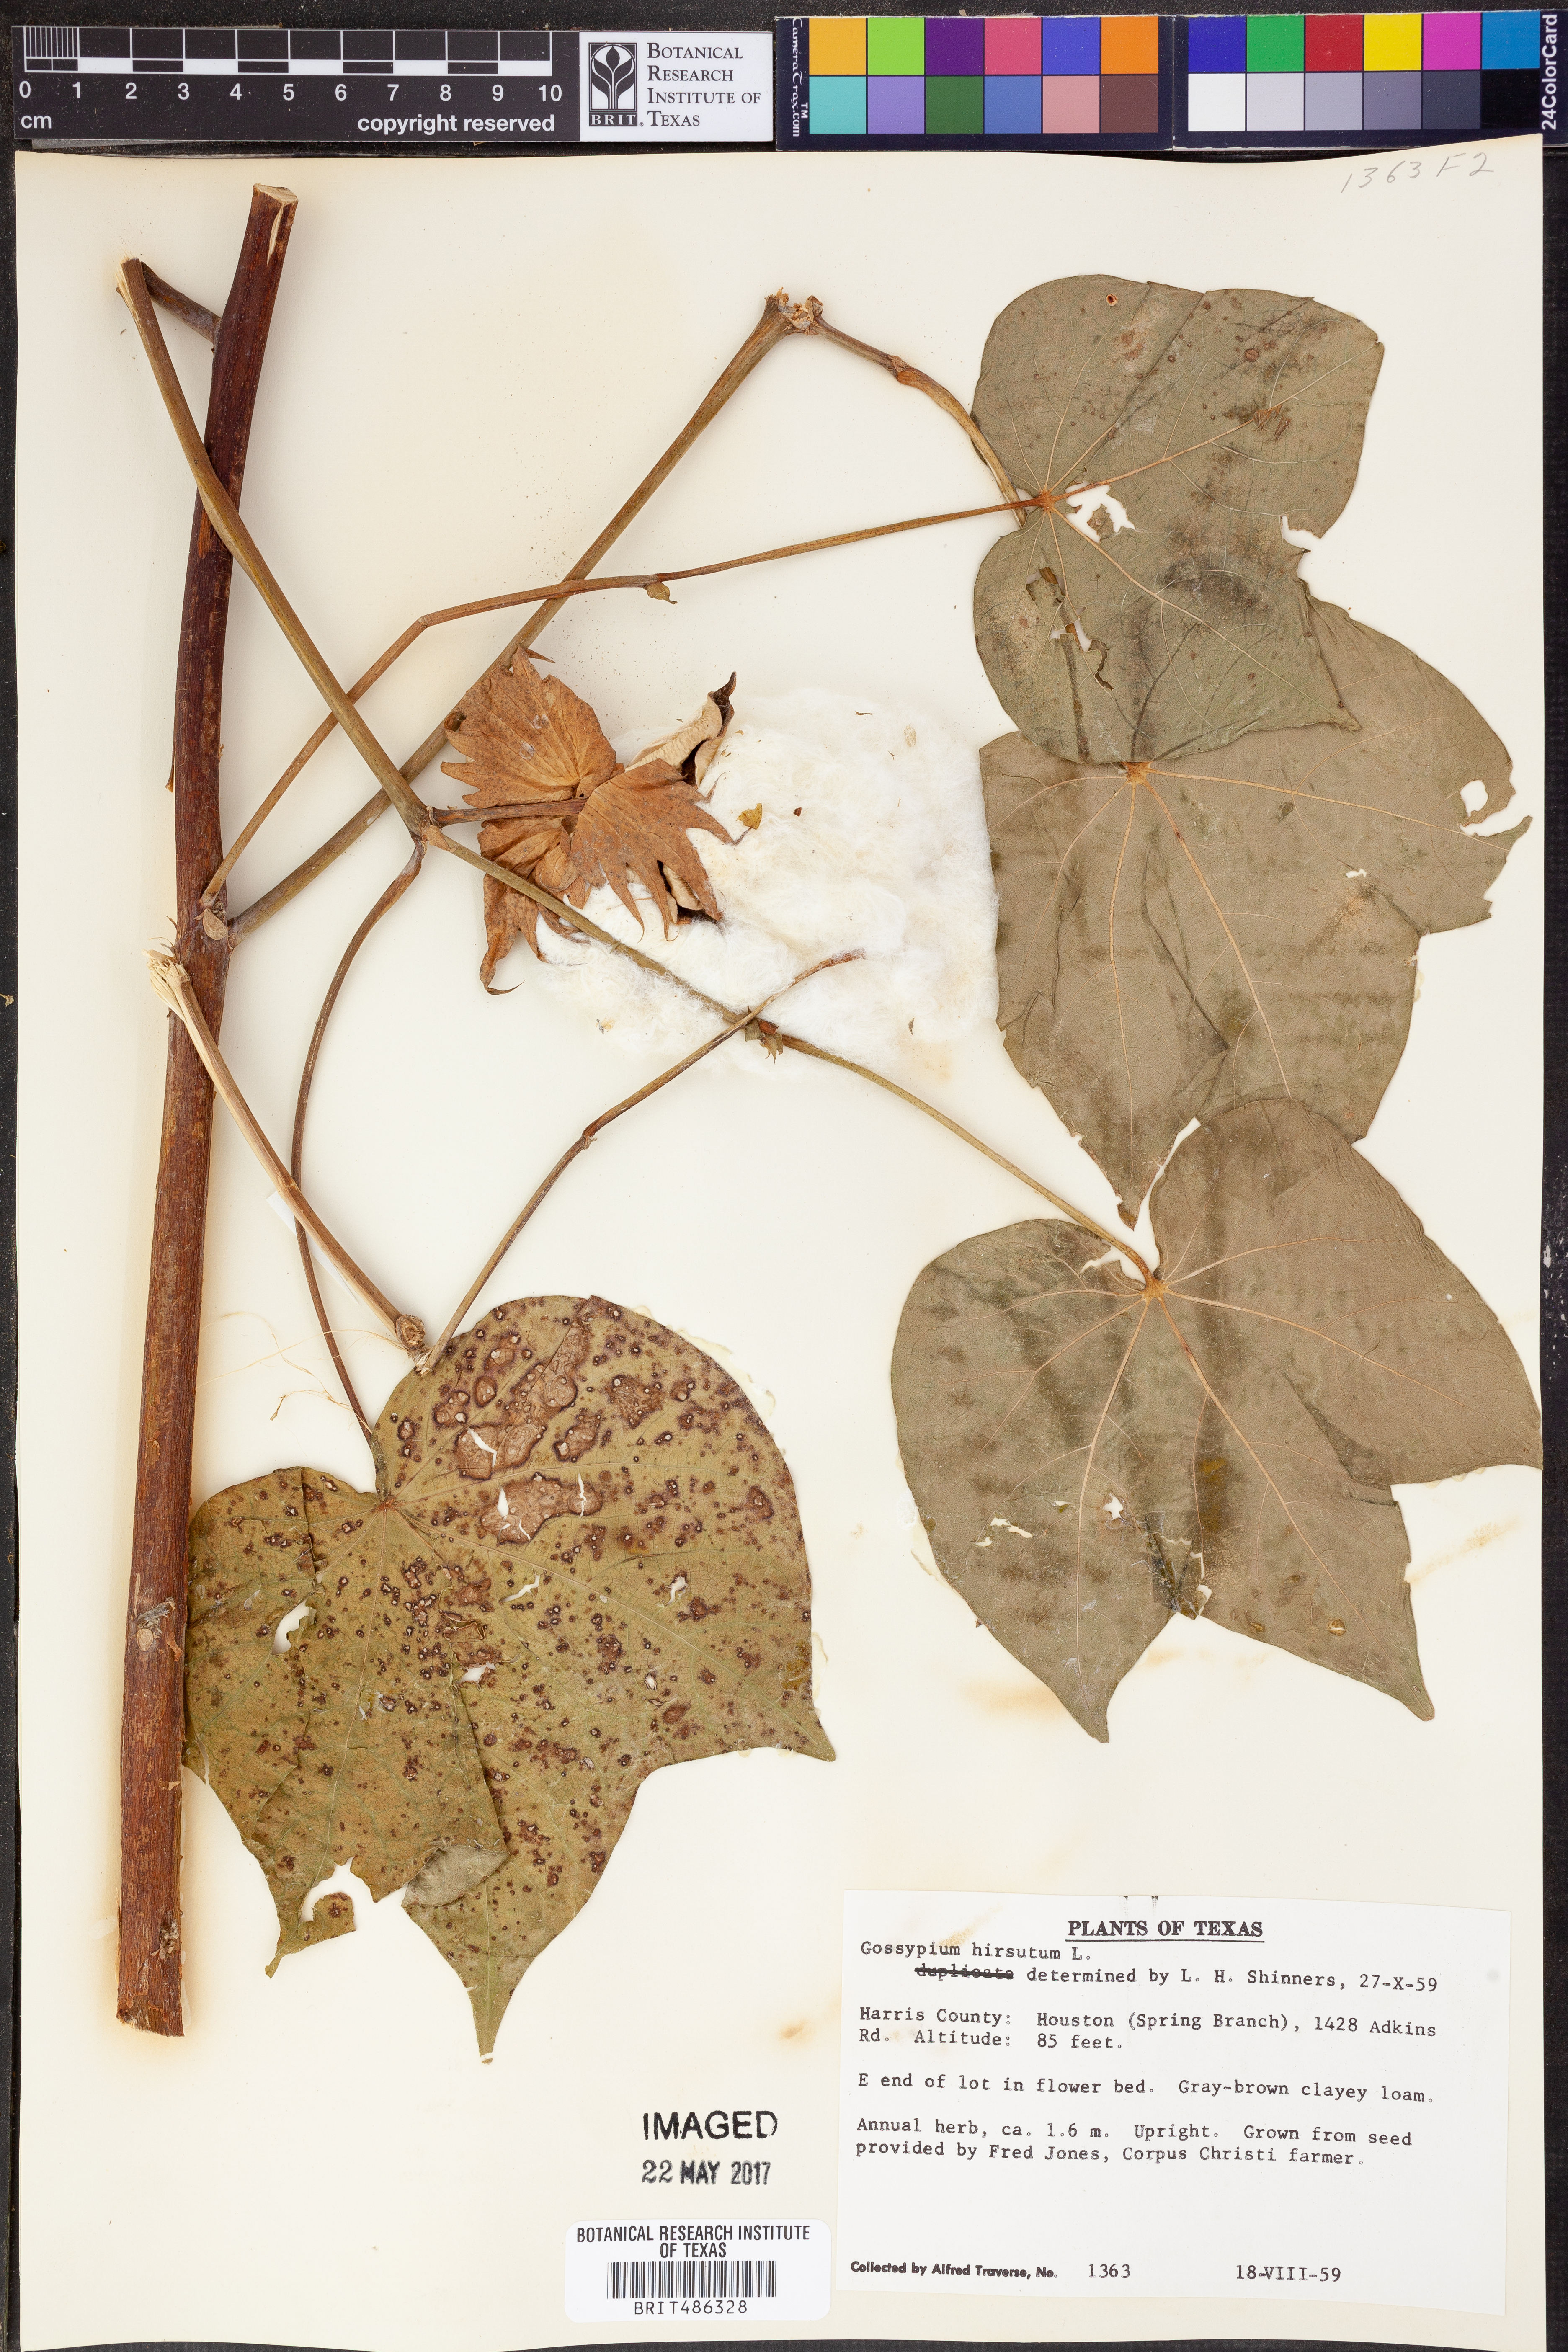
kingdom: Plantae
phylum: Tracheophyta
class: Magnoliopsida
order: Malvales
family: Malvaceae
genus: Gossypium
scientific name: Gossypium hirsutum
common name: Cotton
